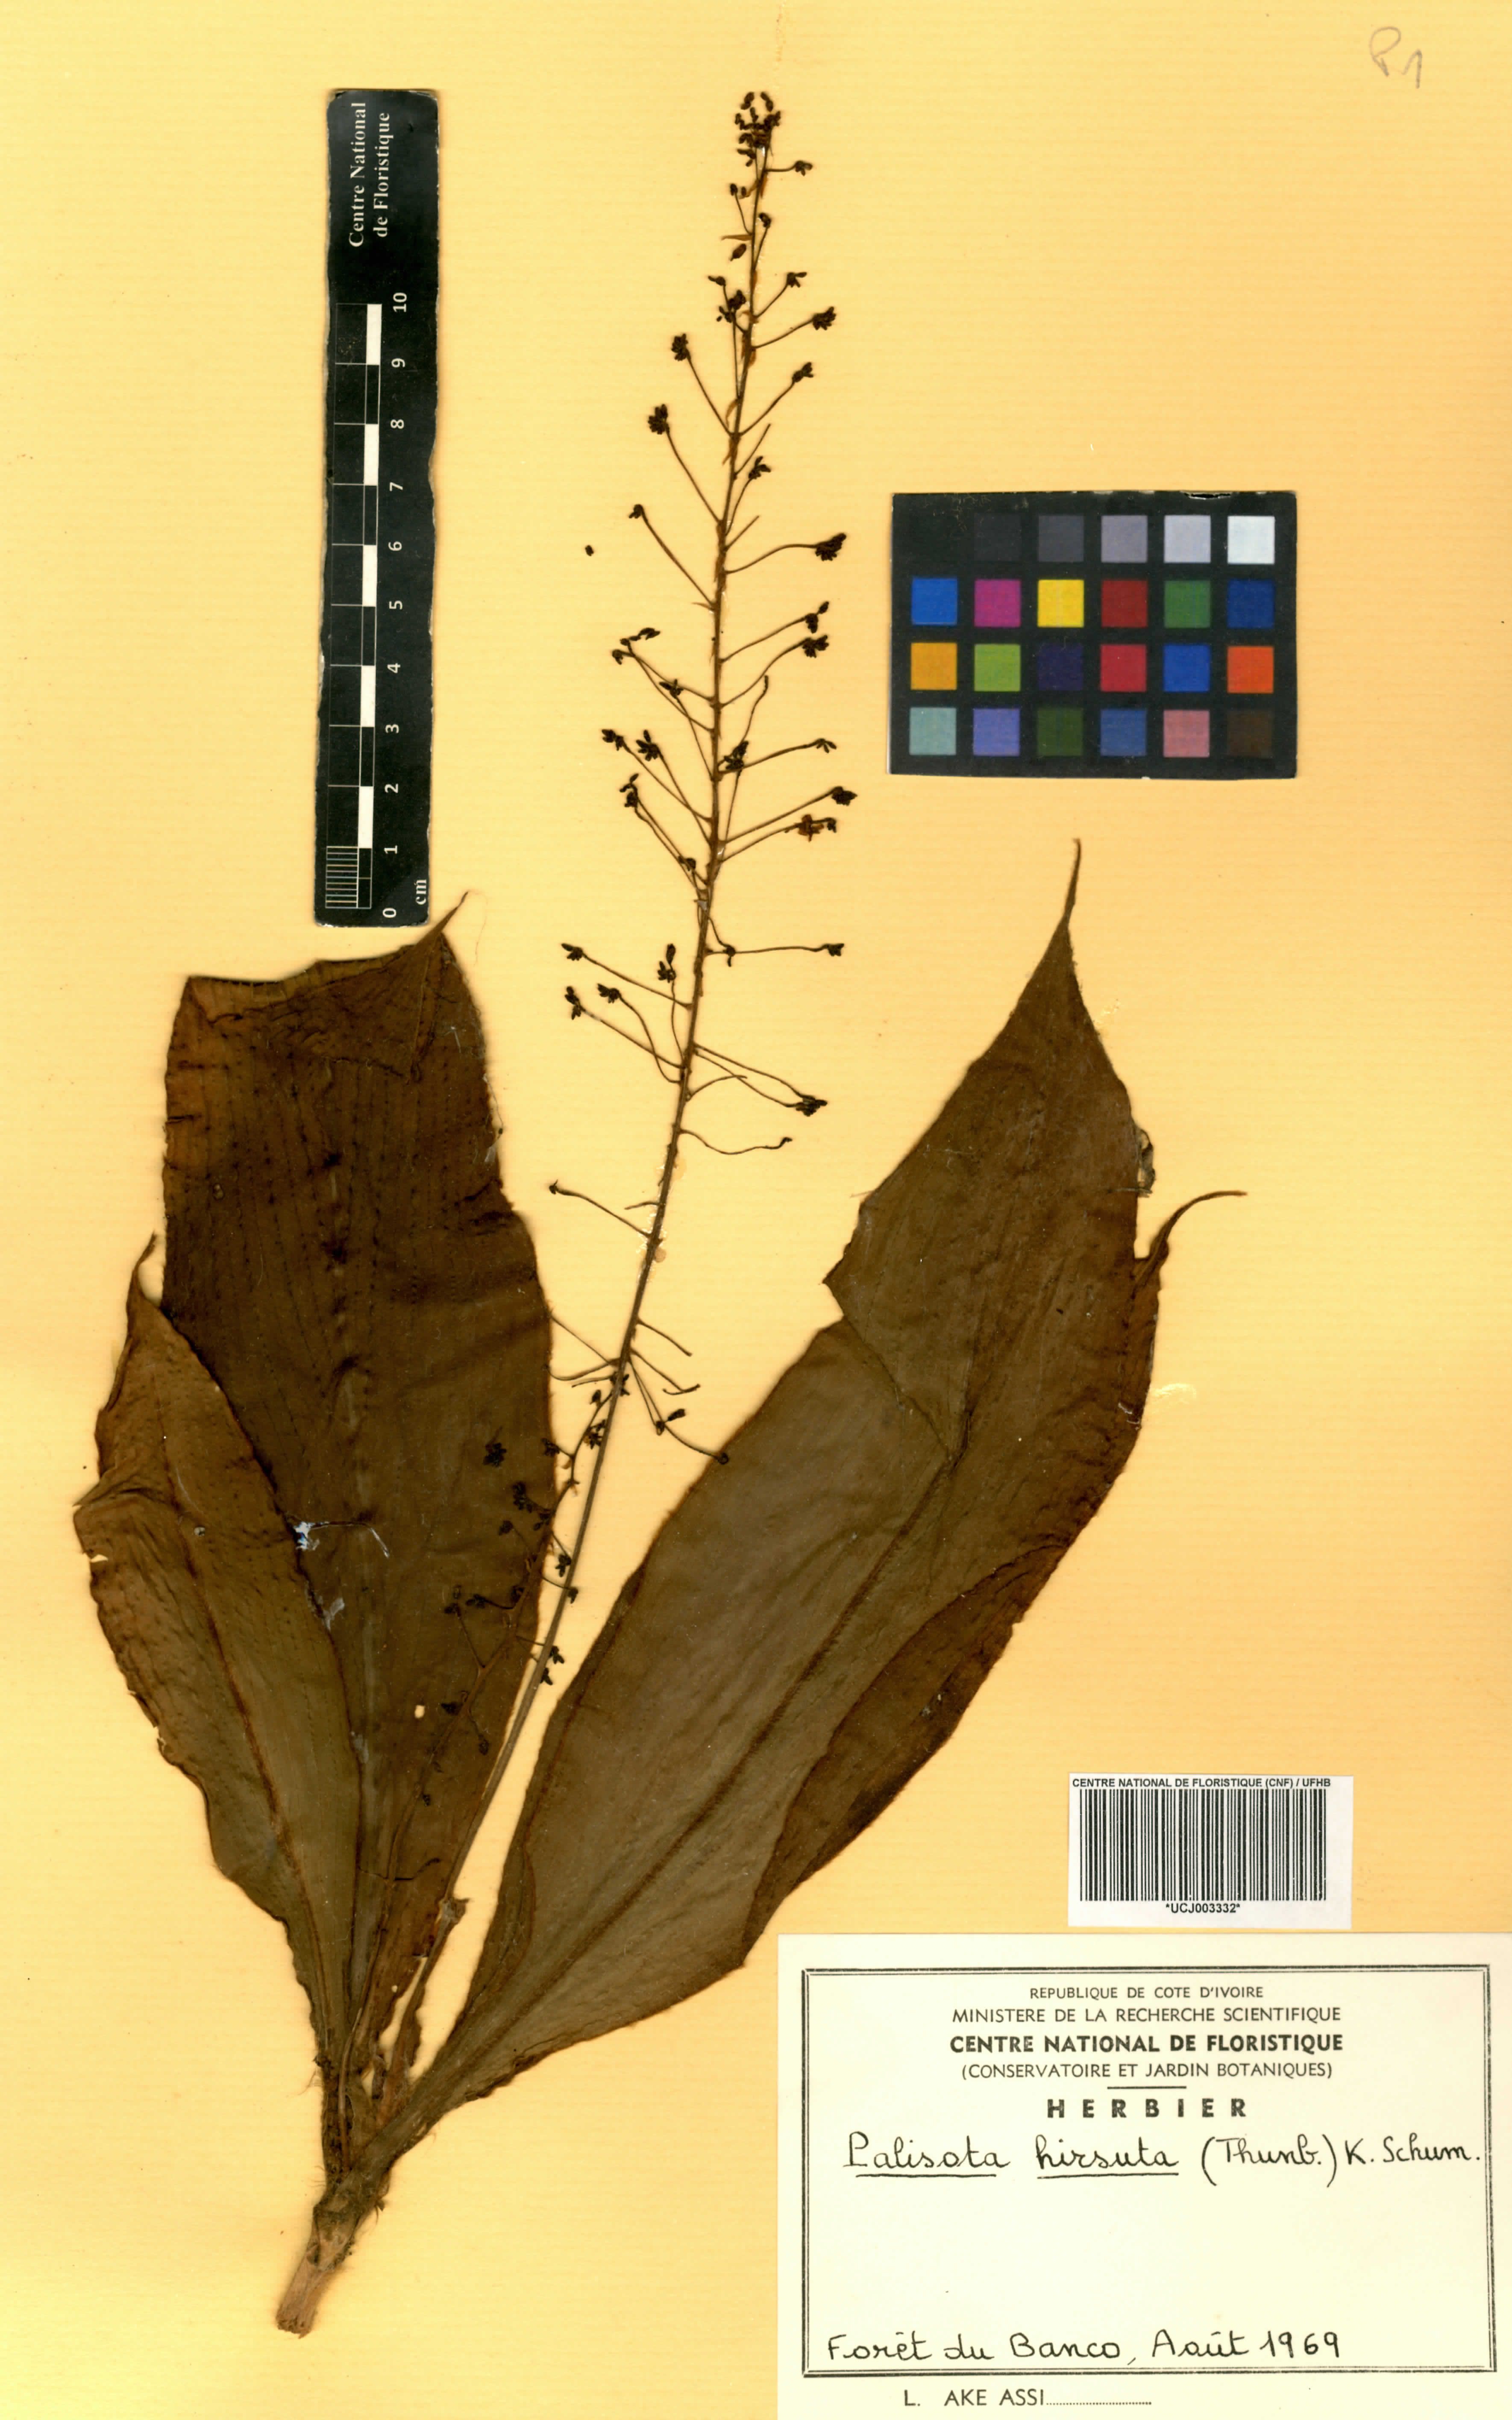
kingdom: Plantae
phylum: Tracheophyta
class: Liliopsida
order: Commelinales
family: Commelinaceae
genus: Palisota
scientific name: Palisota hirsuta
